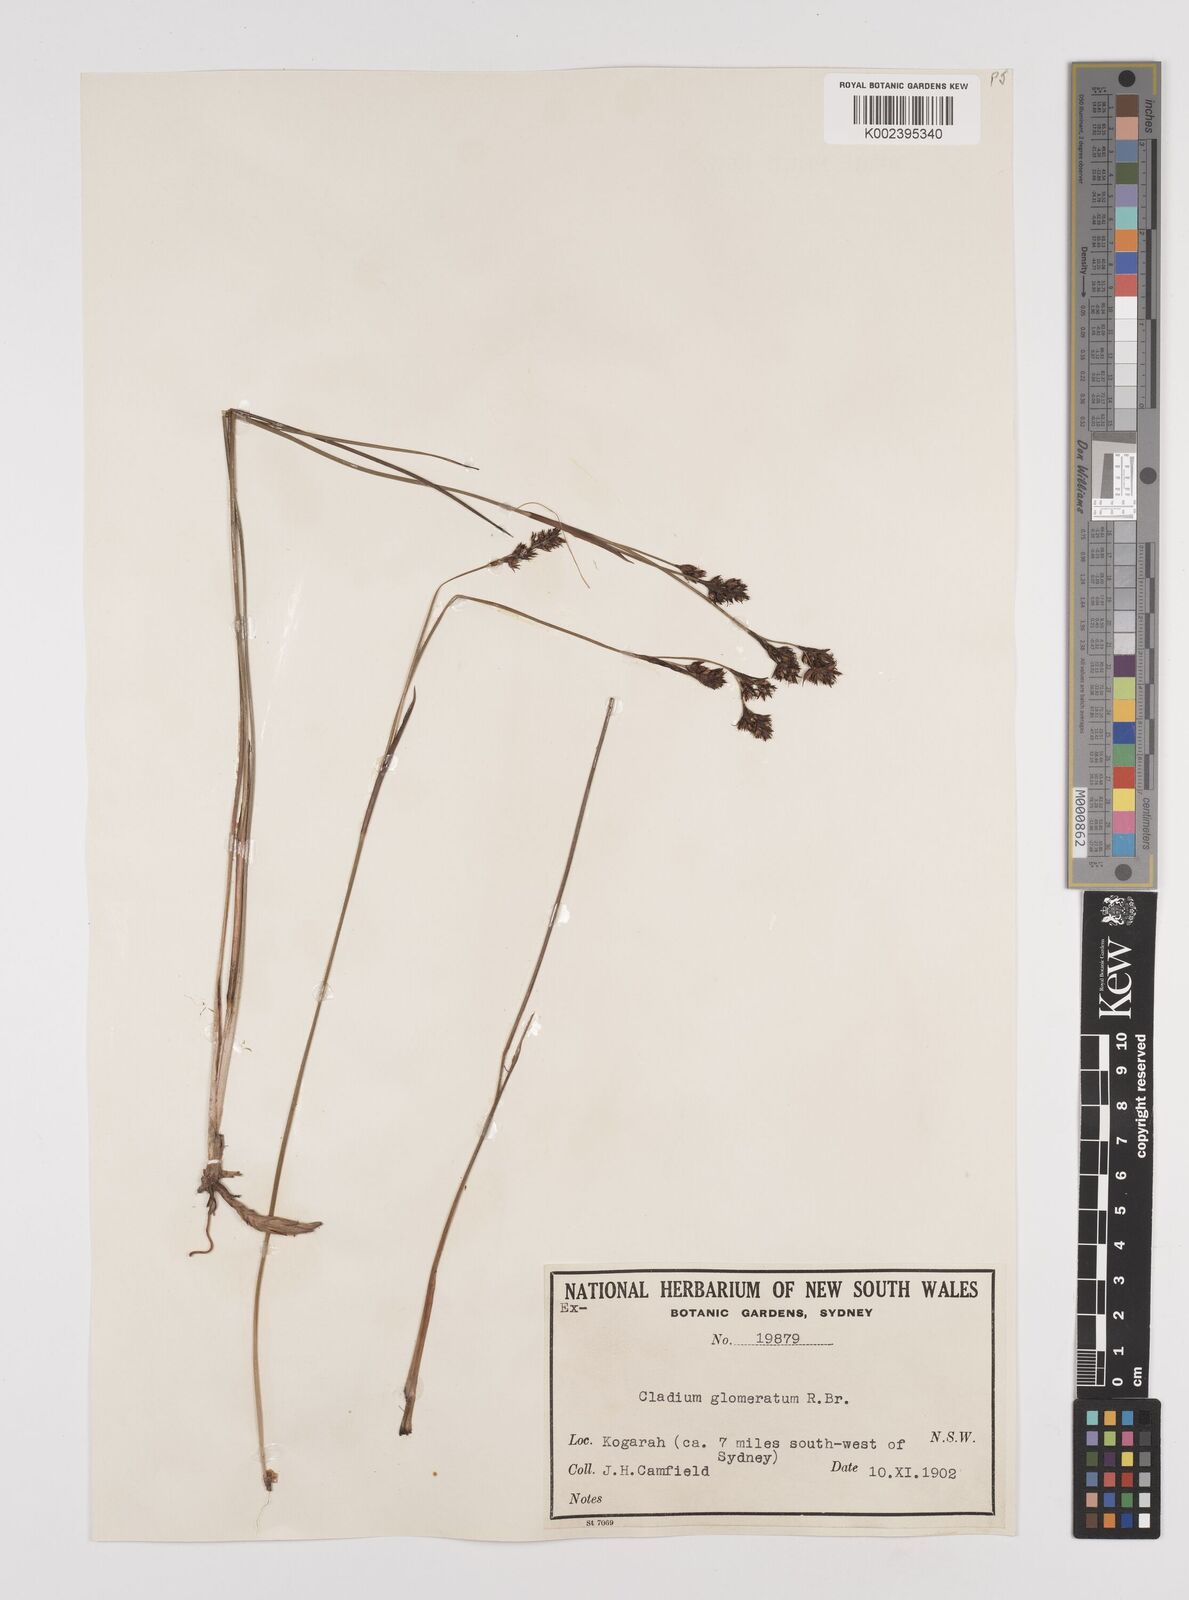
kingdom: Plantae
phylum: Tracheophyta
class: Liliopsida
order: Poales
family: Cyperaceae
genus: Machaerina
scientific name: Machaerina rubiginosa
